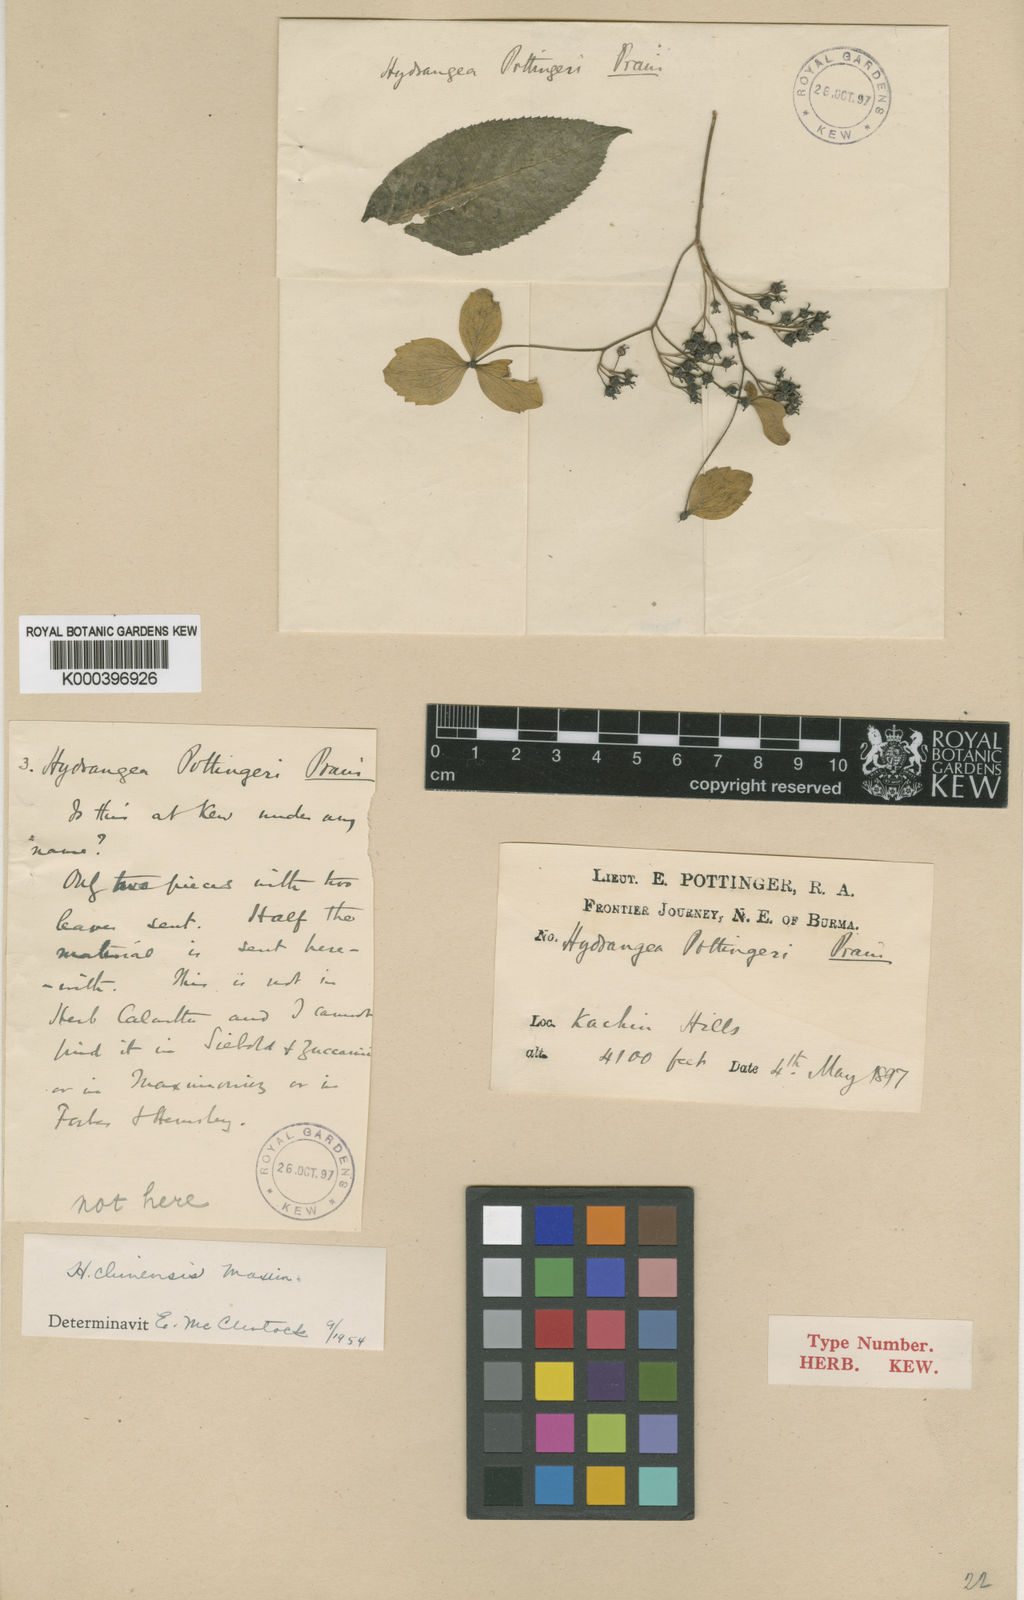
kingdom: Plantae
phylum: Tracheophyta
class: Magnoliopsida
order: Cornales
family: Hydrangeaceae
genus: Hydrangea
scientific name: Hydrangea chinensis
